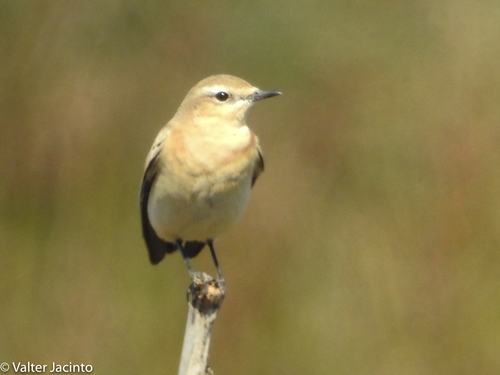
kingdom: Animalia
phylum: Chordata
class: Aves
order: Passeriformes
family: Muscicapidae
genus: Oenanthe
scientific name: Oenanthe oenanthe
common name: Northern wheatear
